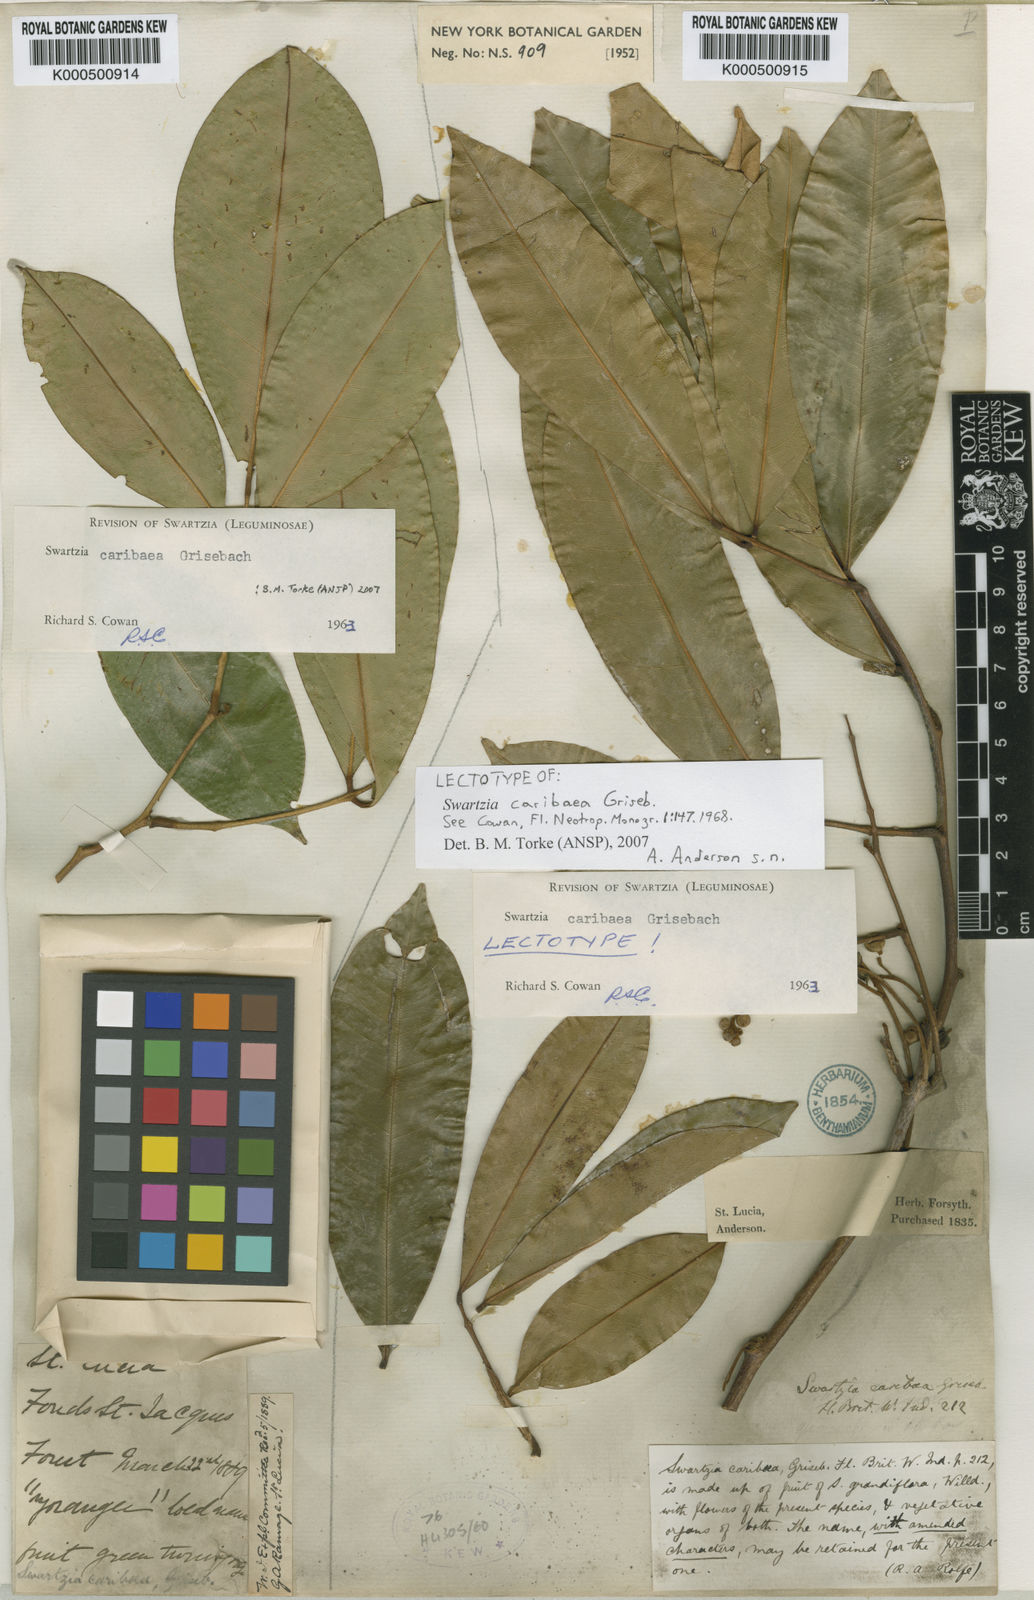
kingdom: Plantae
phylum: Tracheophyta
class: Magnoliopsida
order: Fabales
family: Fabaceae
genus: Swartzia
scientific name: Swartzia caribaea
